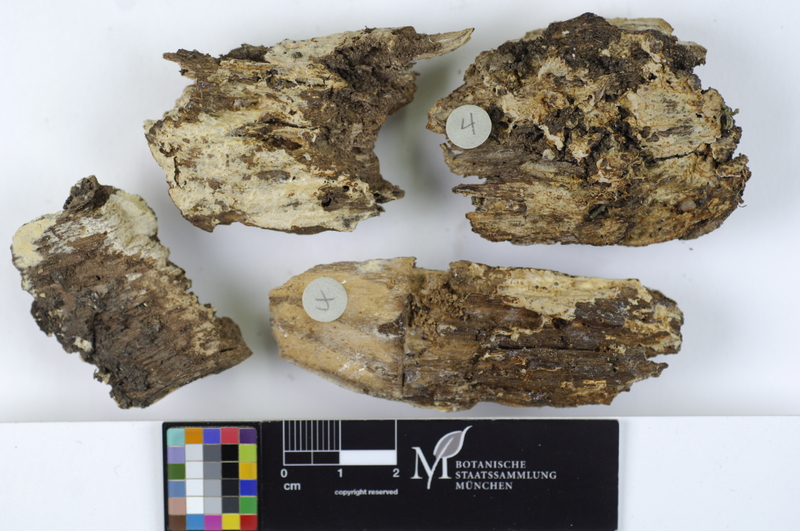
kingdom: Fungi
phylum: Basidiomycota
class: Agaricomycetes
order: Russulales
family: Peniophoraceae
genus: Gloiothele
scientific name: Gloiothele lactescens
